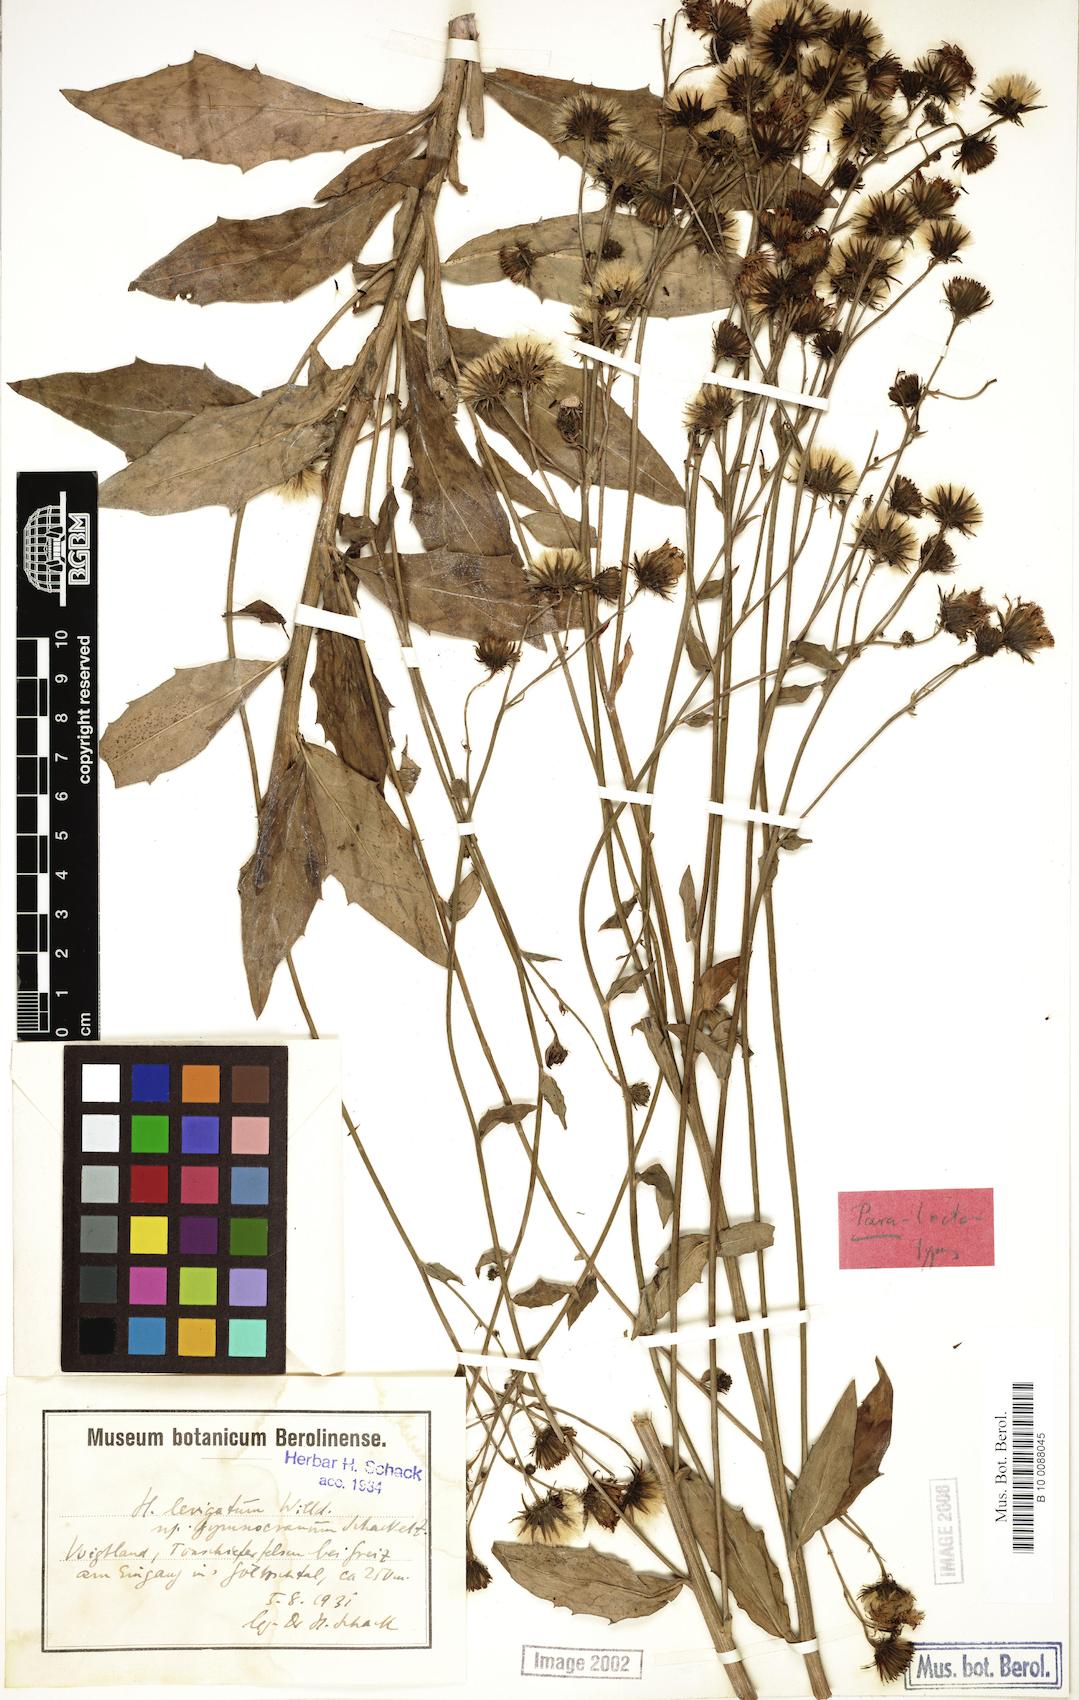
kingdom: Plantae
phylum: Tracheophyta
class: Magnoliopsida
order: Asterales
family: Asteraceae
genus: Hieracium
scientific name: Hieracium laevigatum
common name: Smooth hawkweed
